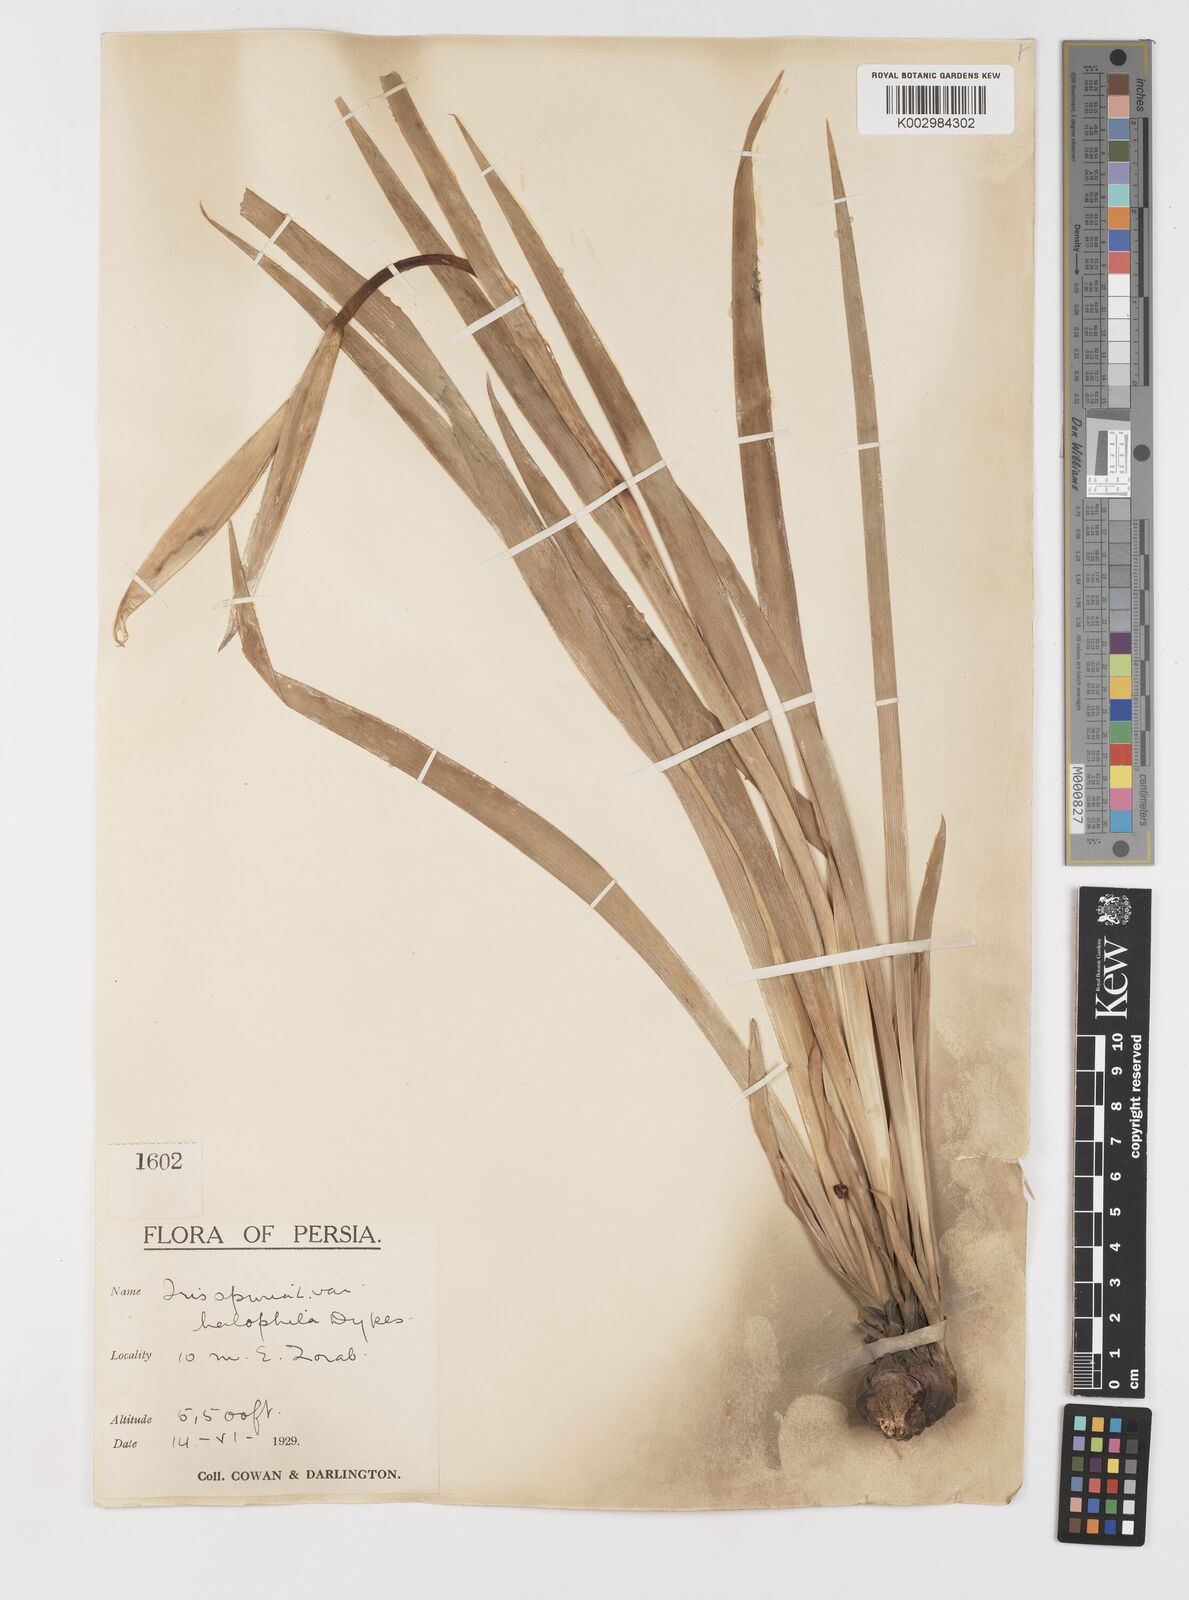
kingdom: Plantae
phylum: Tracheophyta
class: Liliopsida
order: Asparagales
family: Iridaceae
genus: Iris
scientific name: Iris spuria
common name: Blue iris
